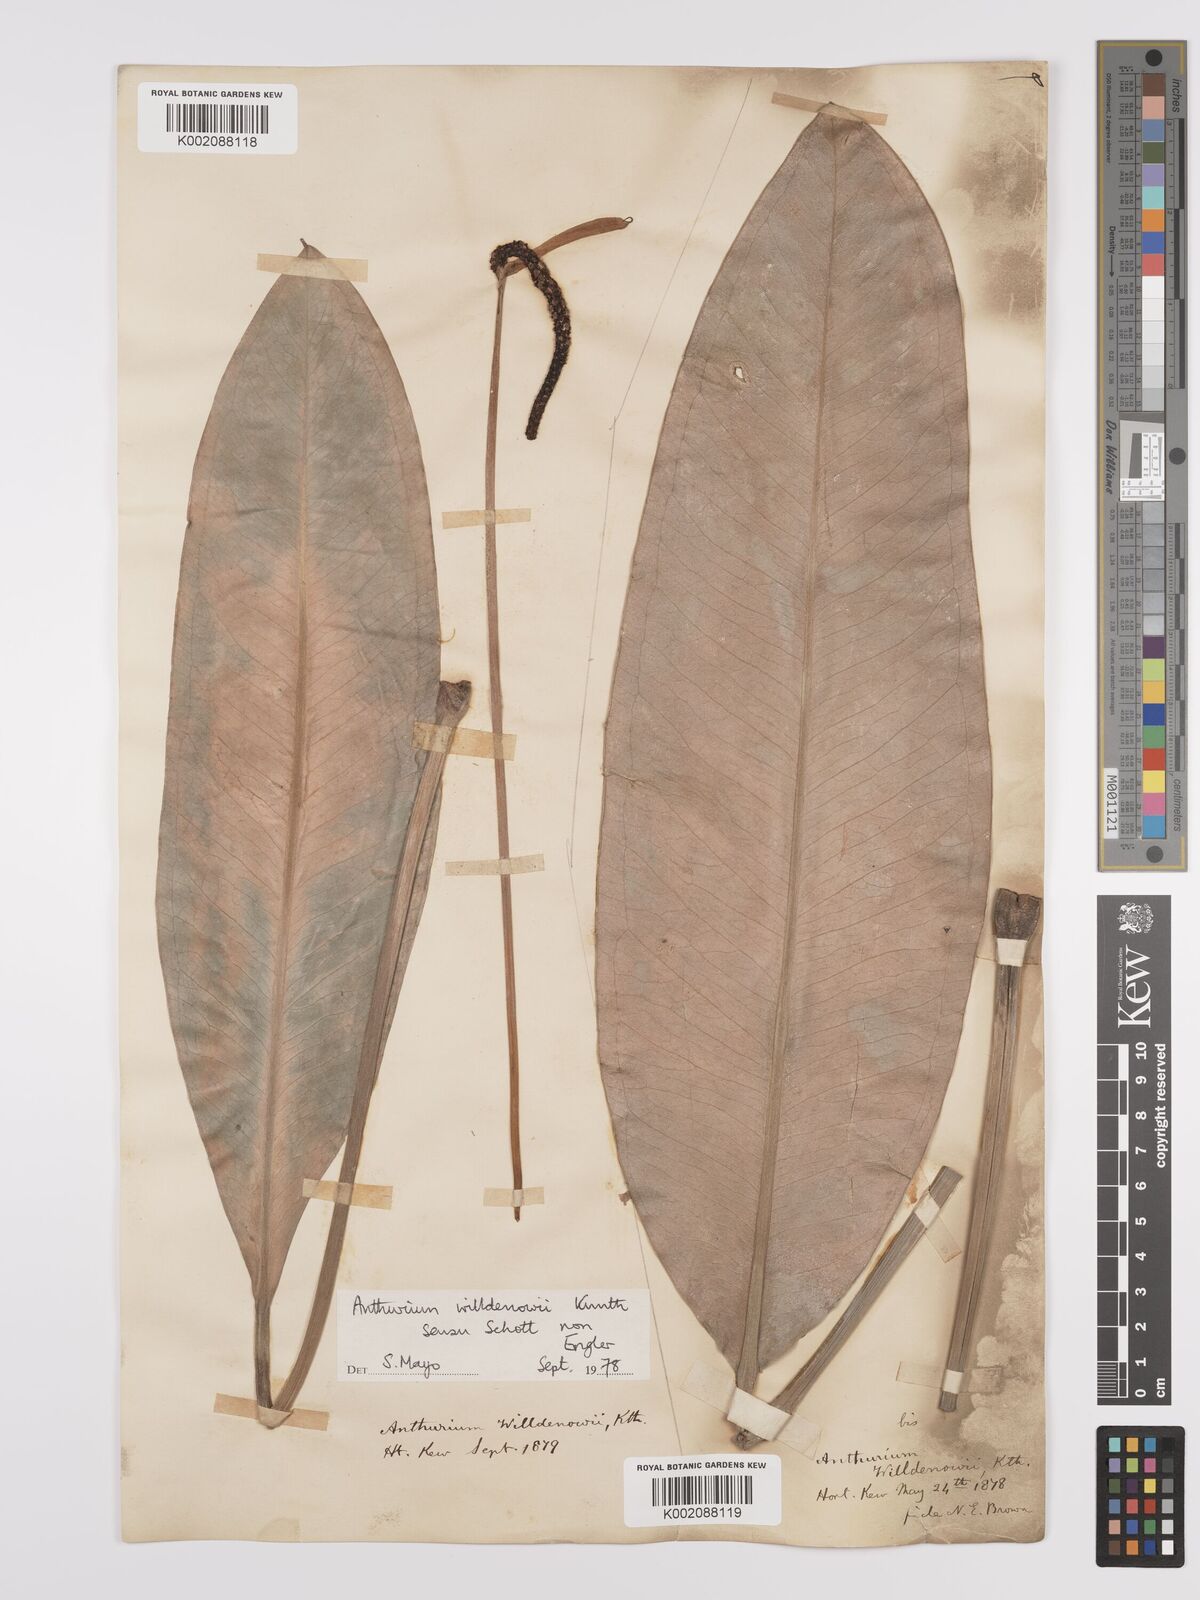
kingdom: Plantae
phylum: Tracheophyta
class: Liliopsida
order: Alismatales
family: Araceae
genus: Anthurium
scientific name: Anthurium willdenowii
